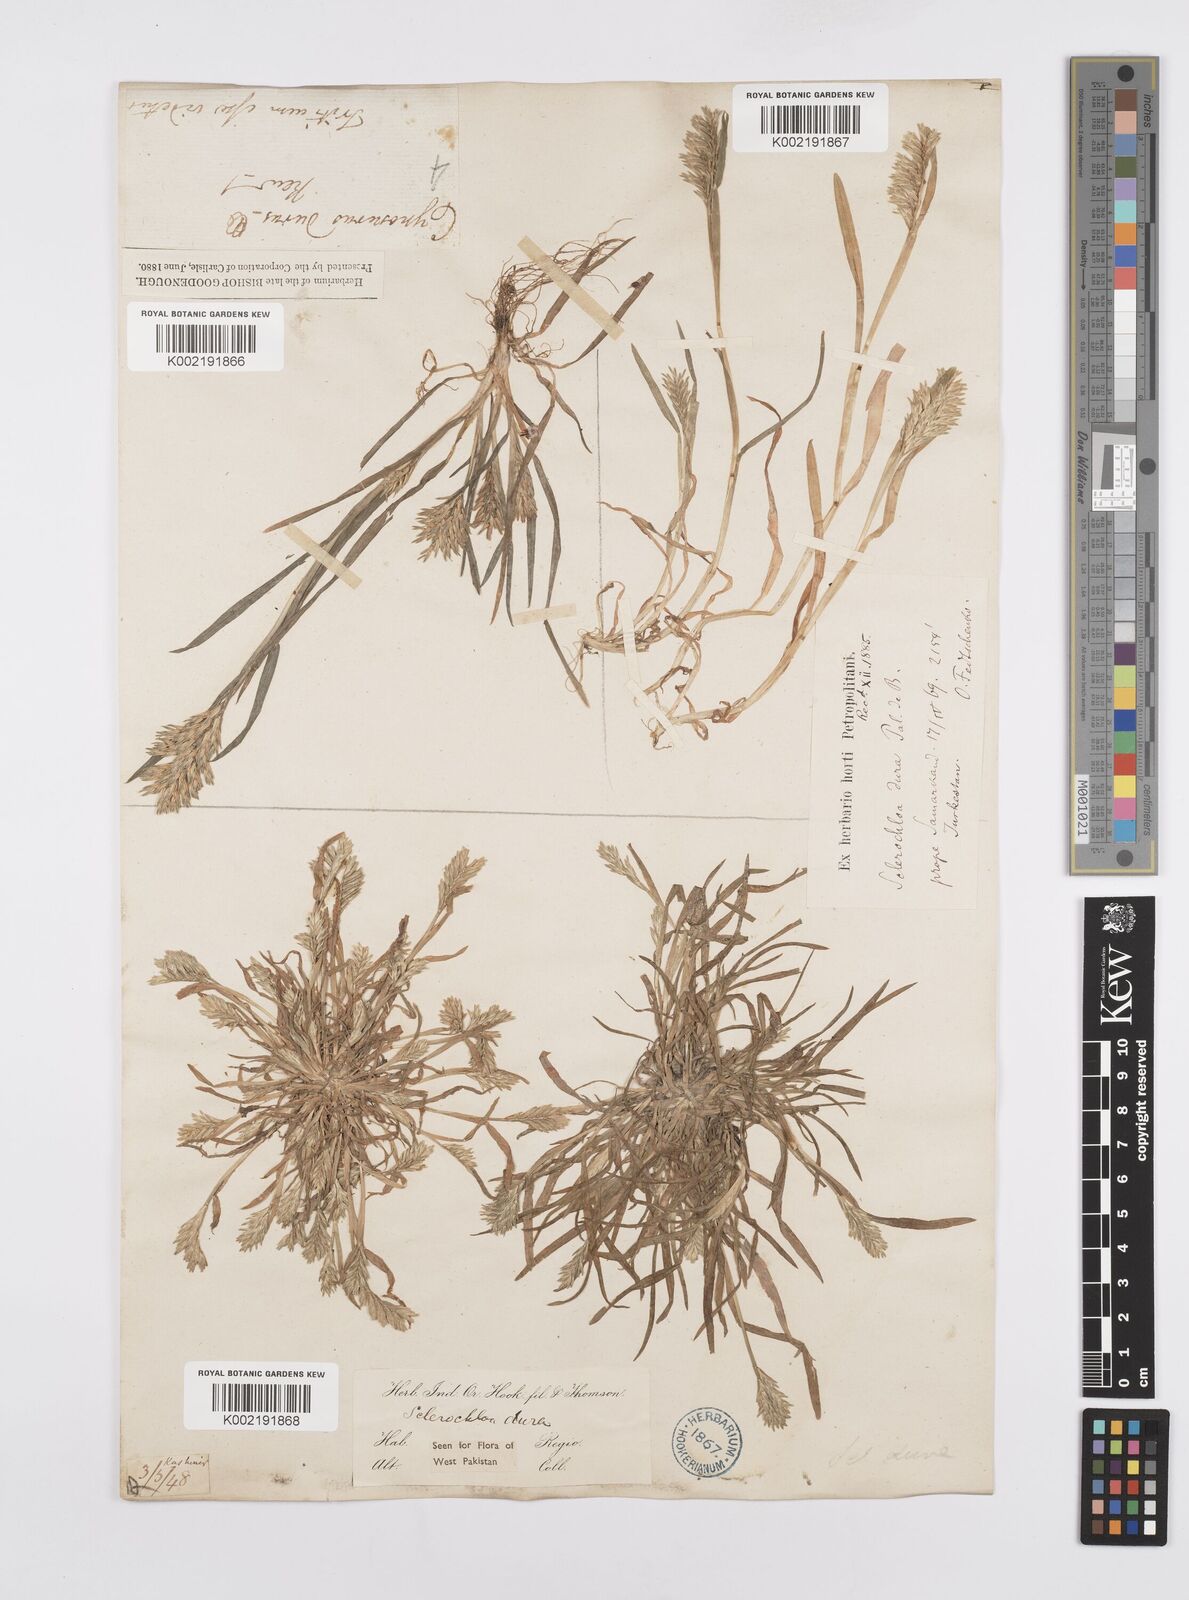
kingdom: Plantae
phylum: Tracheophyta
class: Liliopsida
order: Poales
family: Poaceae
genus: Sclerochloa
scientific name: Sclerochloa dura
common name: Common hardgrass
